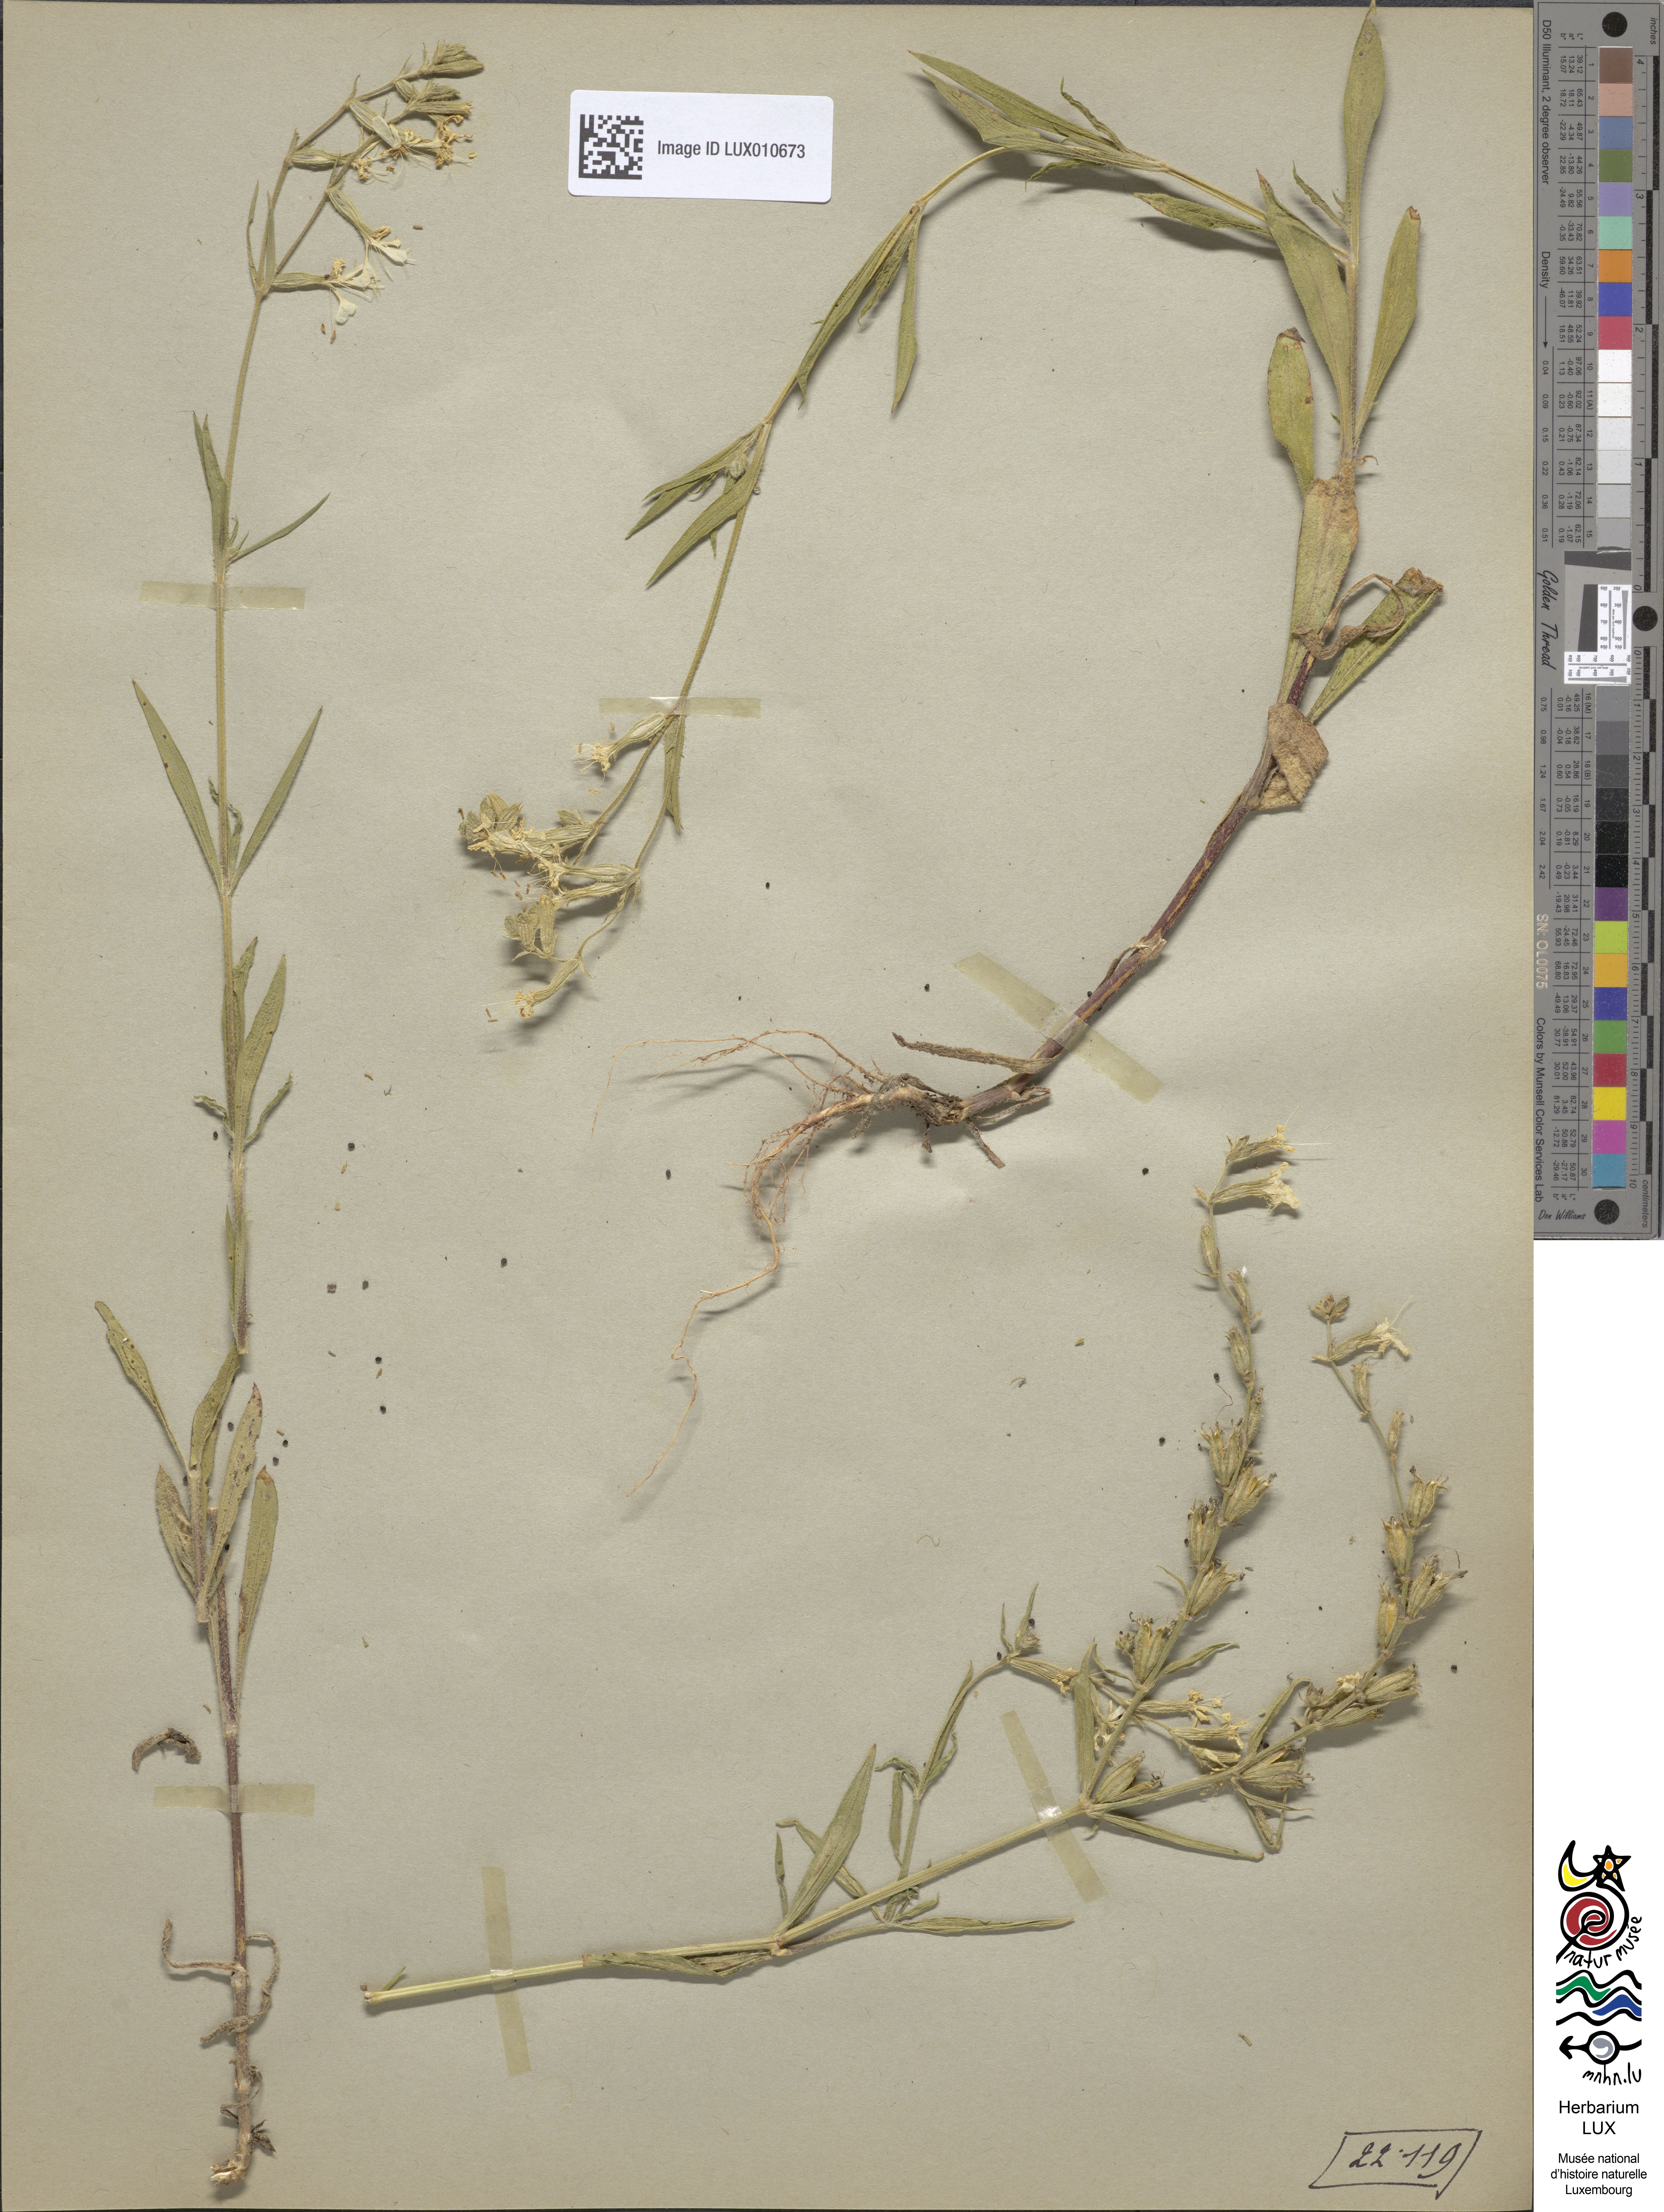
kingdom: Plantae
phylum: Tracheophyta
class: Magnoliopsida
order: Caryophyllales
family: Caryophyllaceae
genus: Silene
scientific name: Silene dichotoma
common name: Forked catchfly
